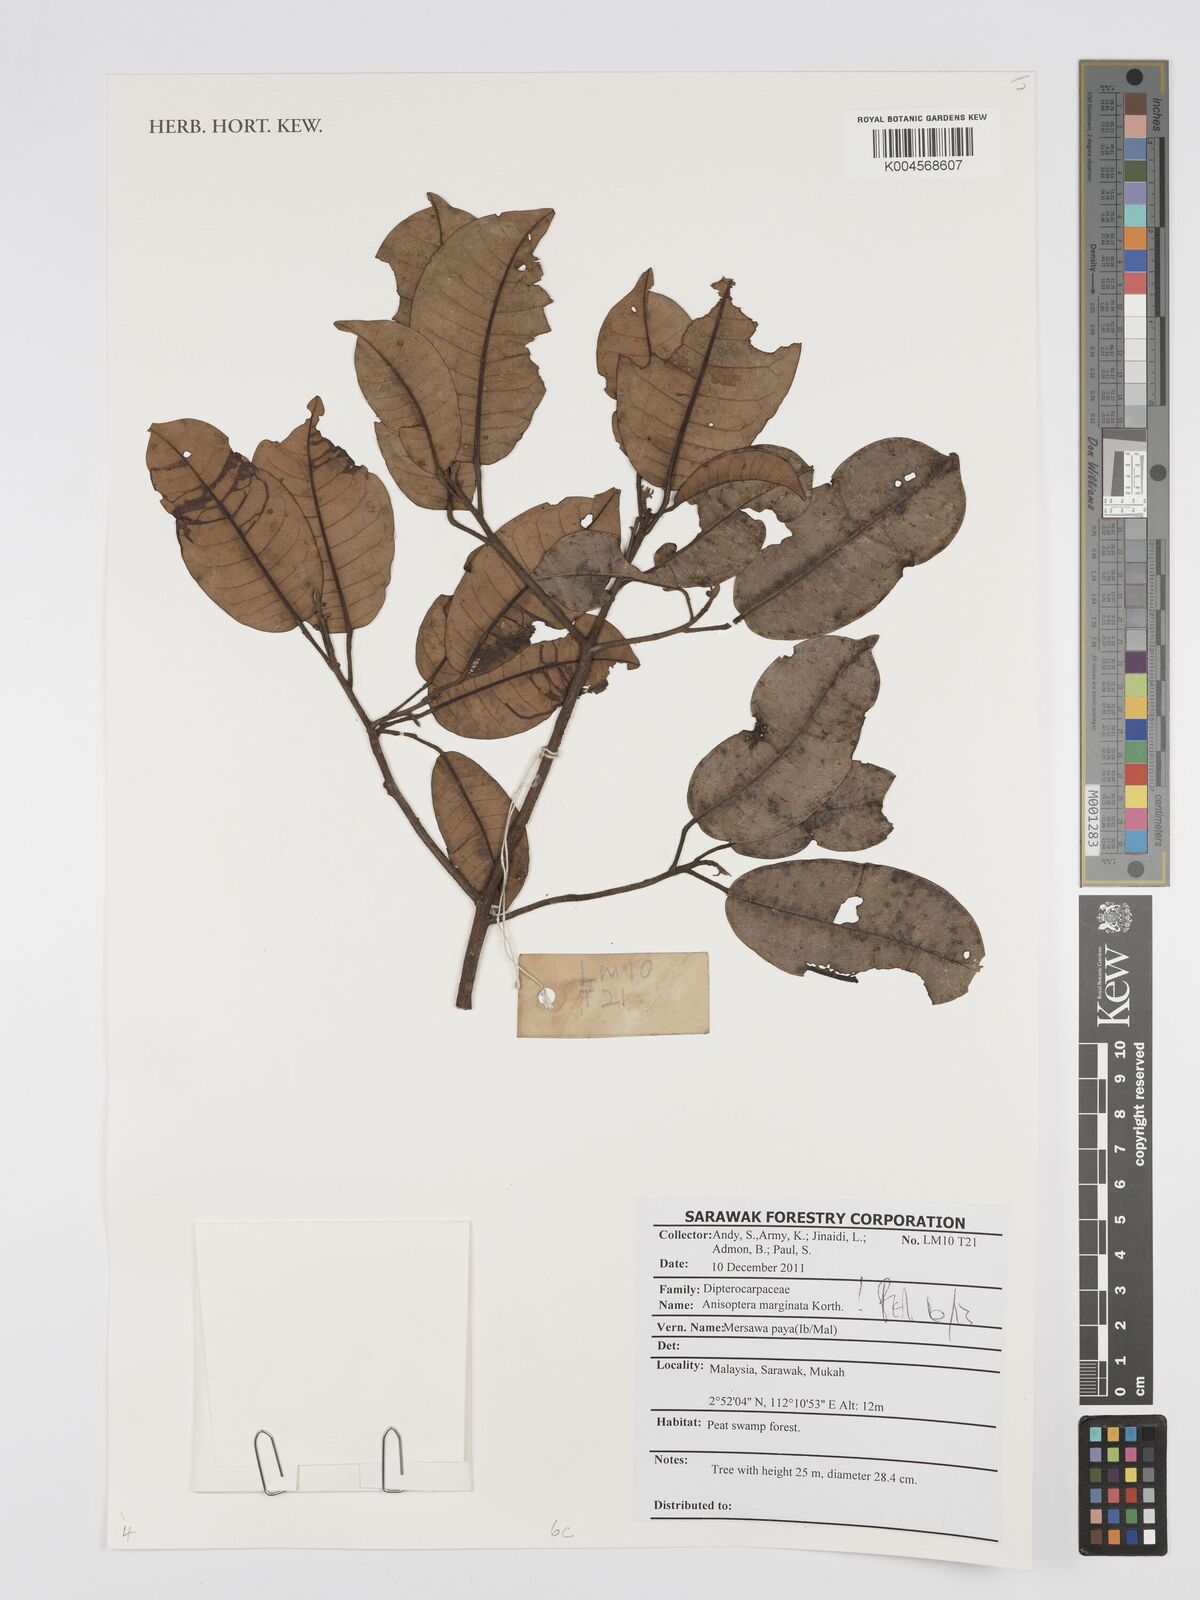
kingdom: Plantae
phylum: Tracheophyta
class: Magnoliopsida
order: Malvales
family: Dipterocarpaceae
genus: Anisoptera
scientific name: Anisoptera marginata
